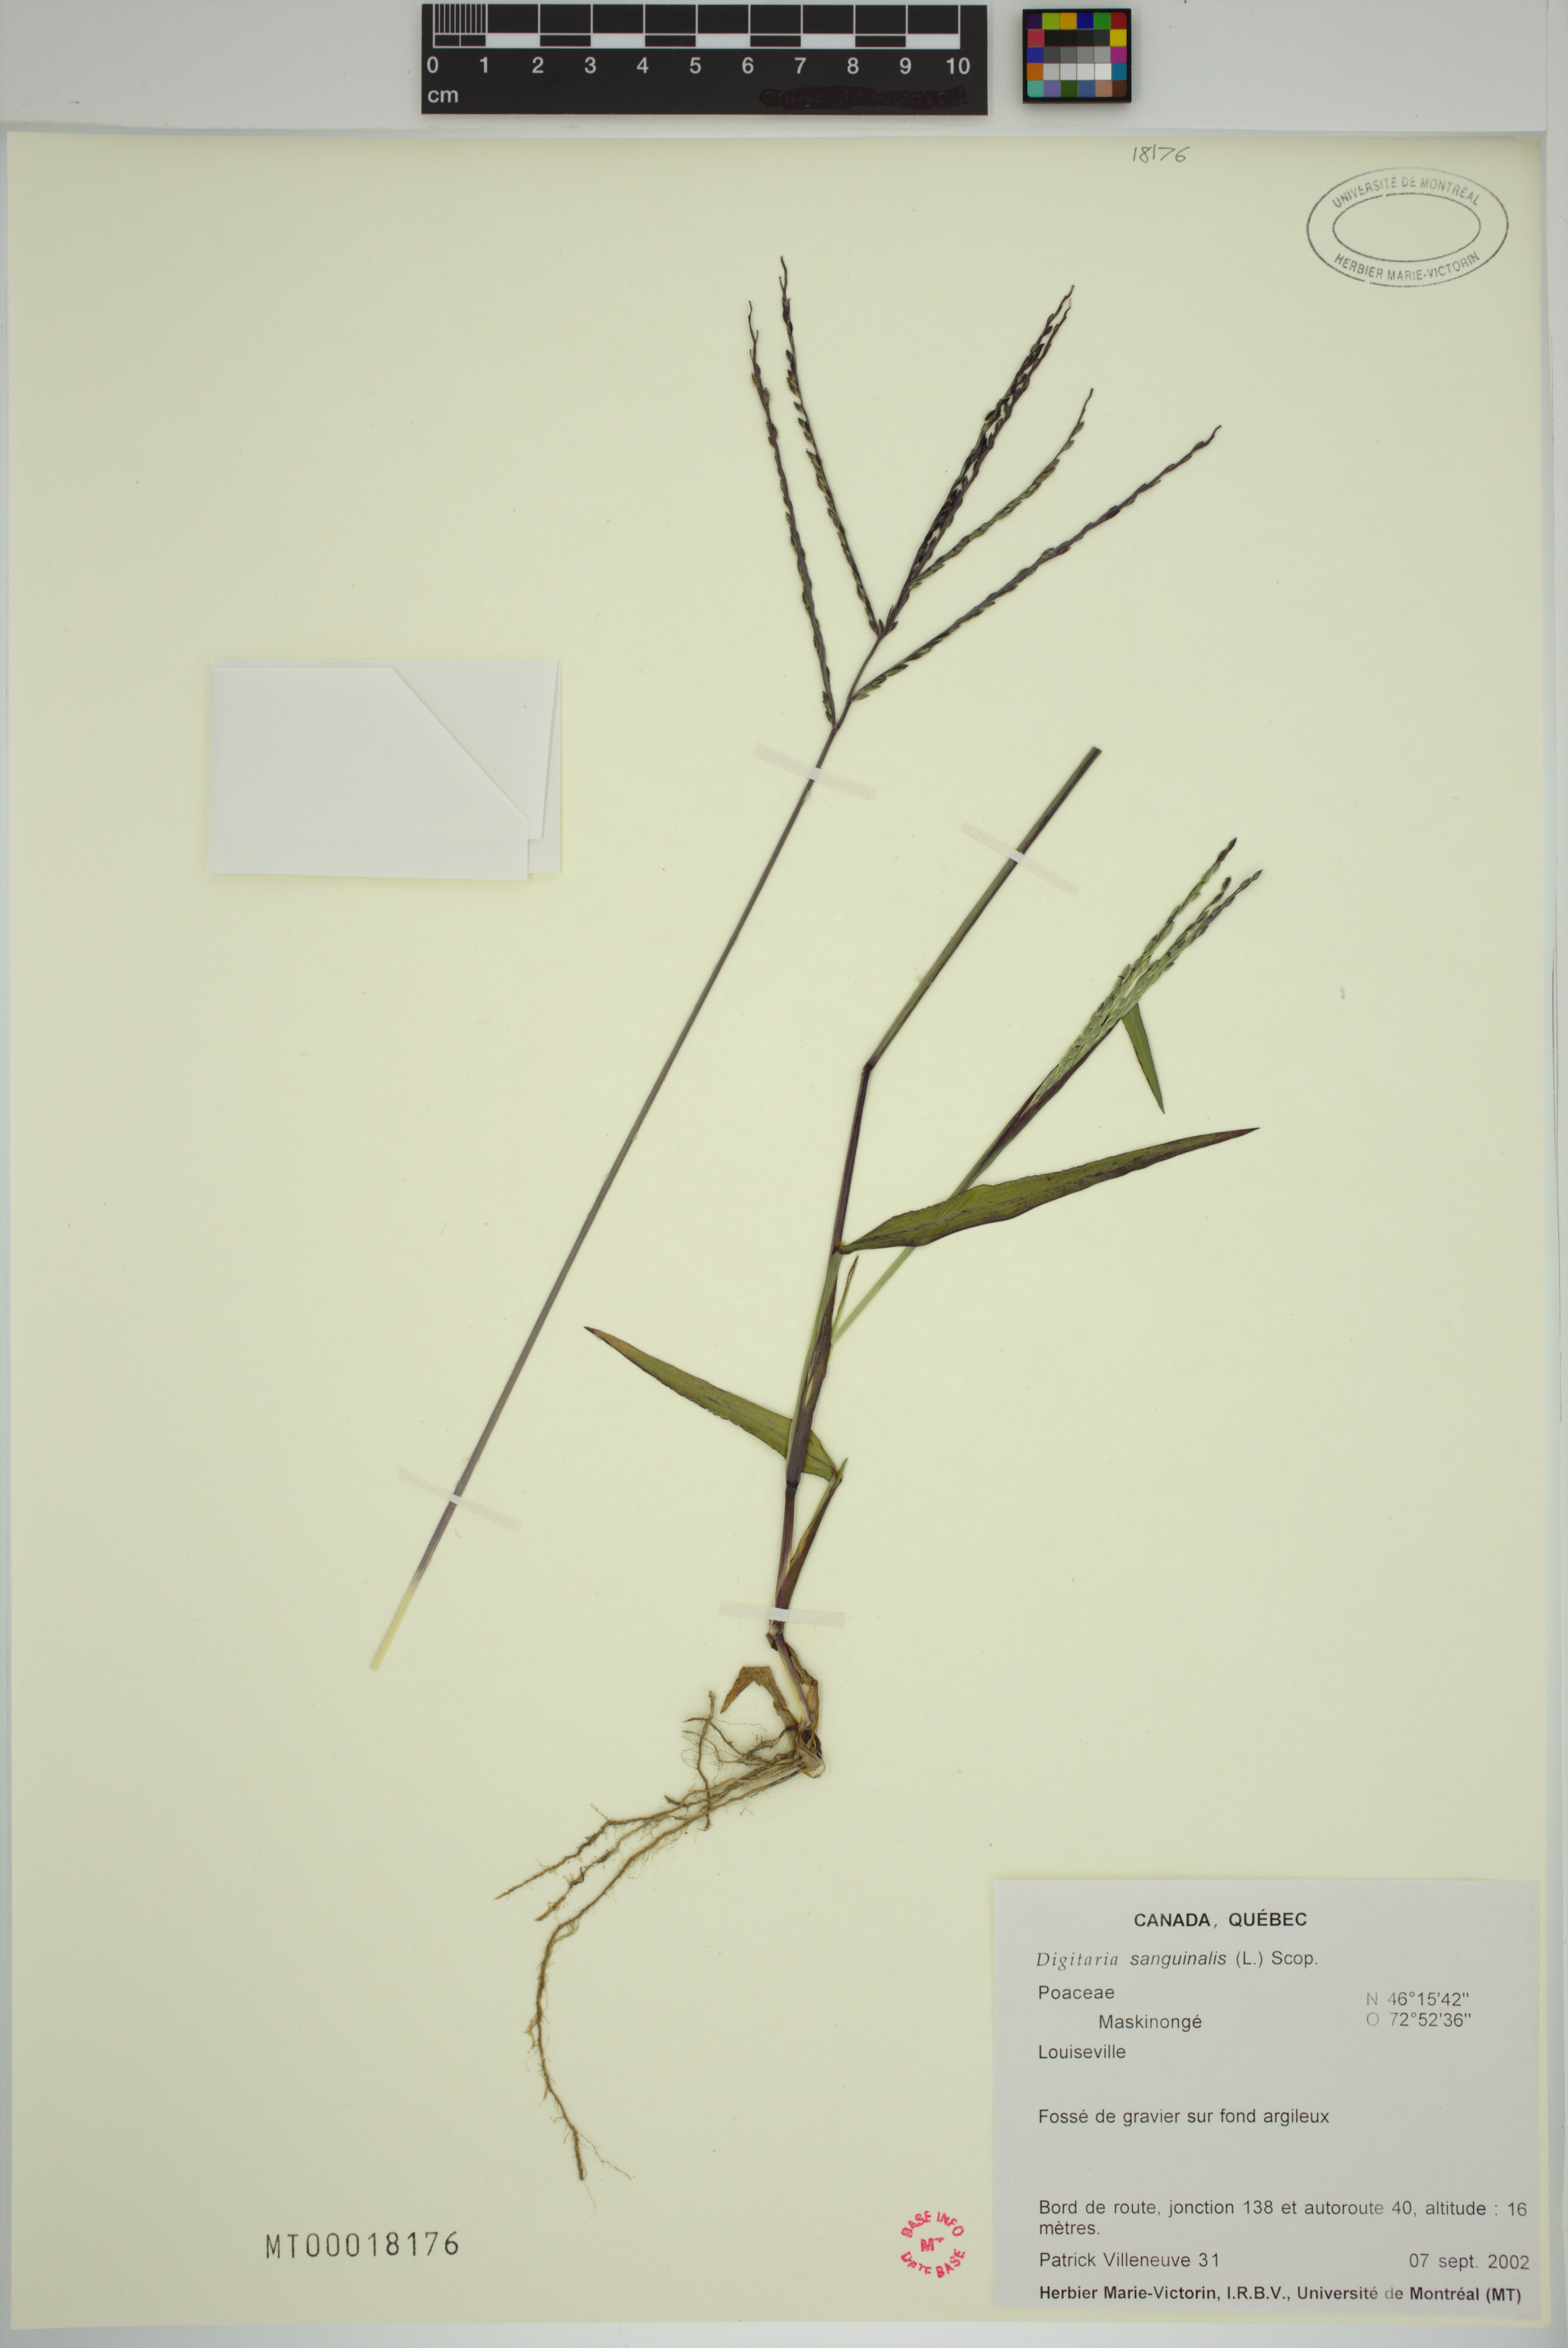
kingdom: Plantae
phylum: Tracheophyta
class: Liliopsida
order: Poales
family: Poaceae
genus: Digitaria
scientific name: Digitaria sanguinalis
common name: Hairy crabgrass
